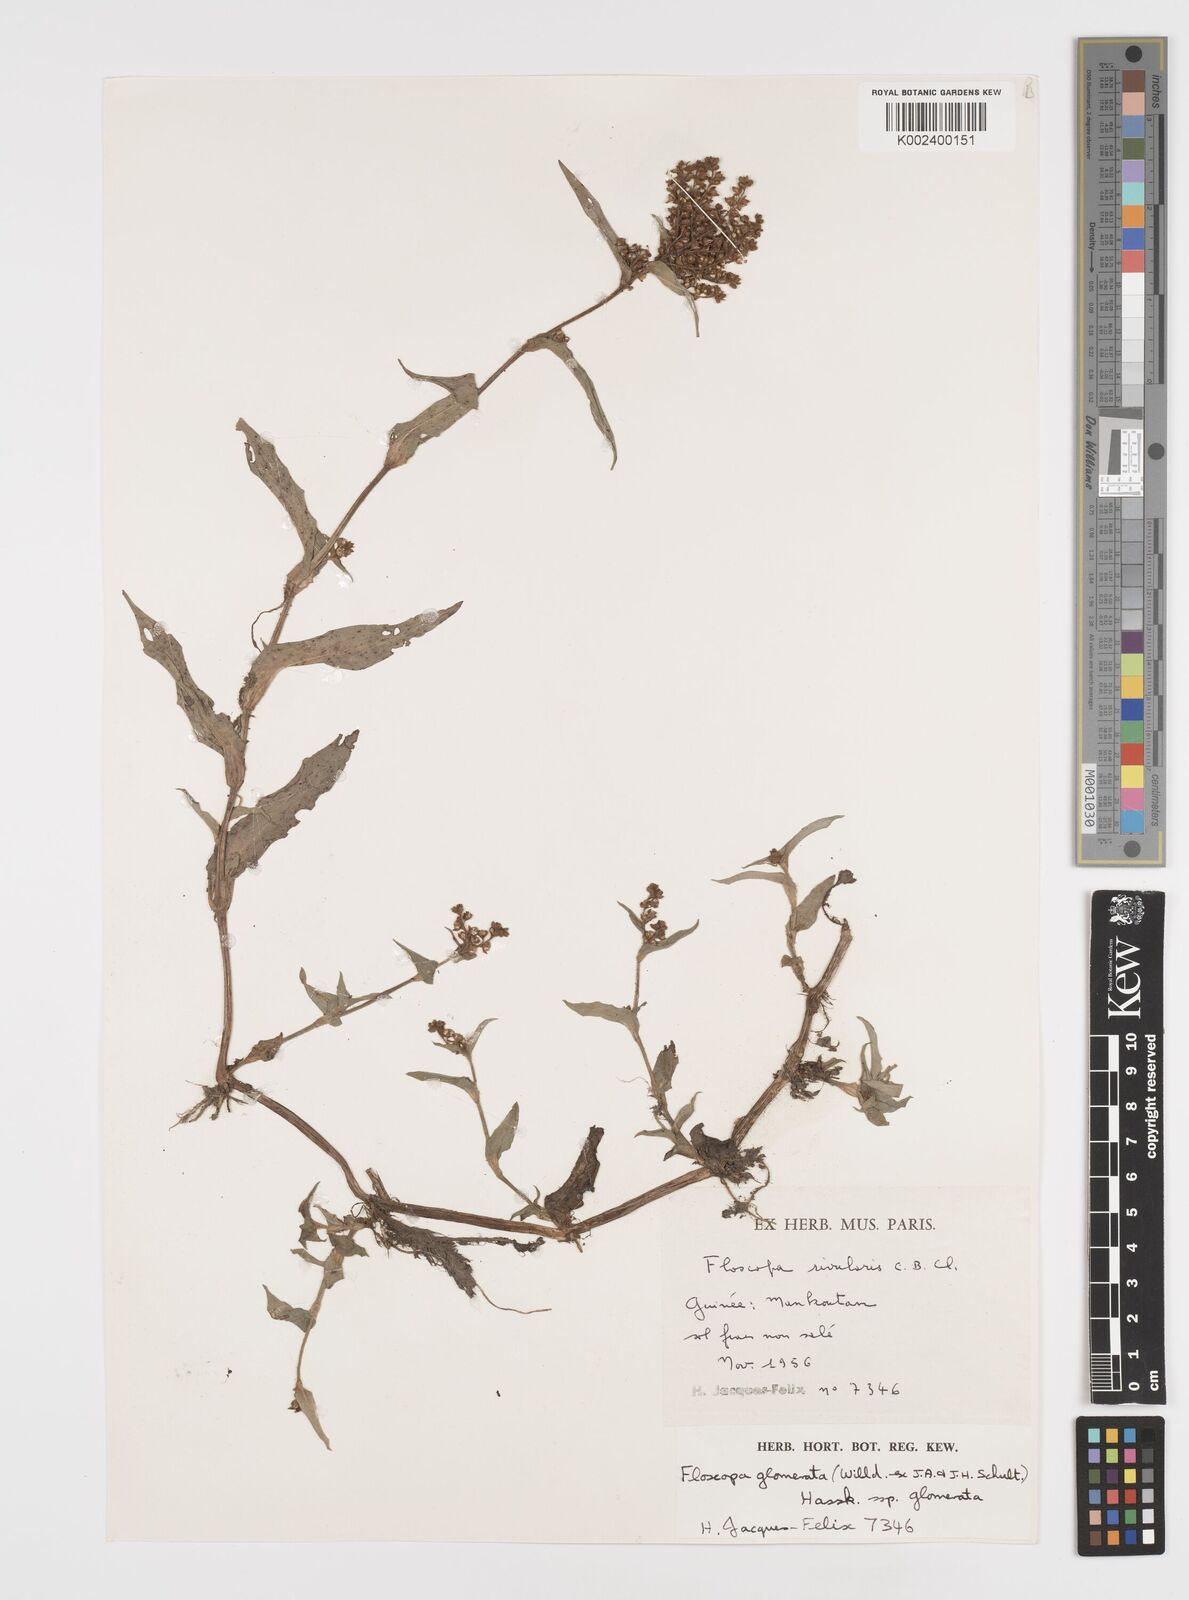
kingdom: Plantae
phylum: Tracheophyta
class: Liliopsida
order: Commelinales
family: Commelinaceae
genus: Floscopa
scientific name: Floscopa glomerata
